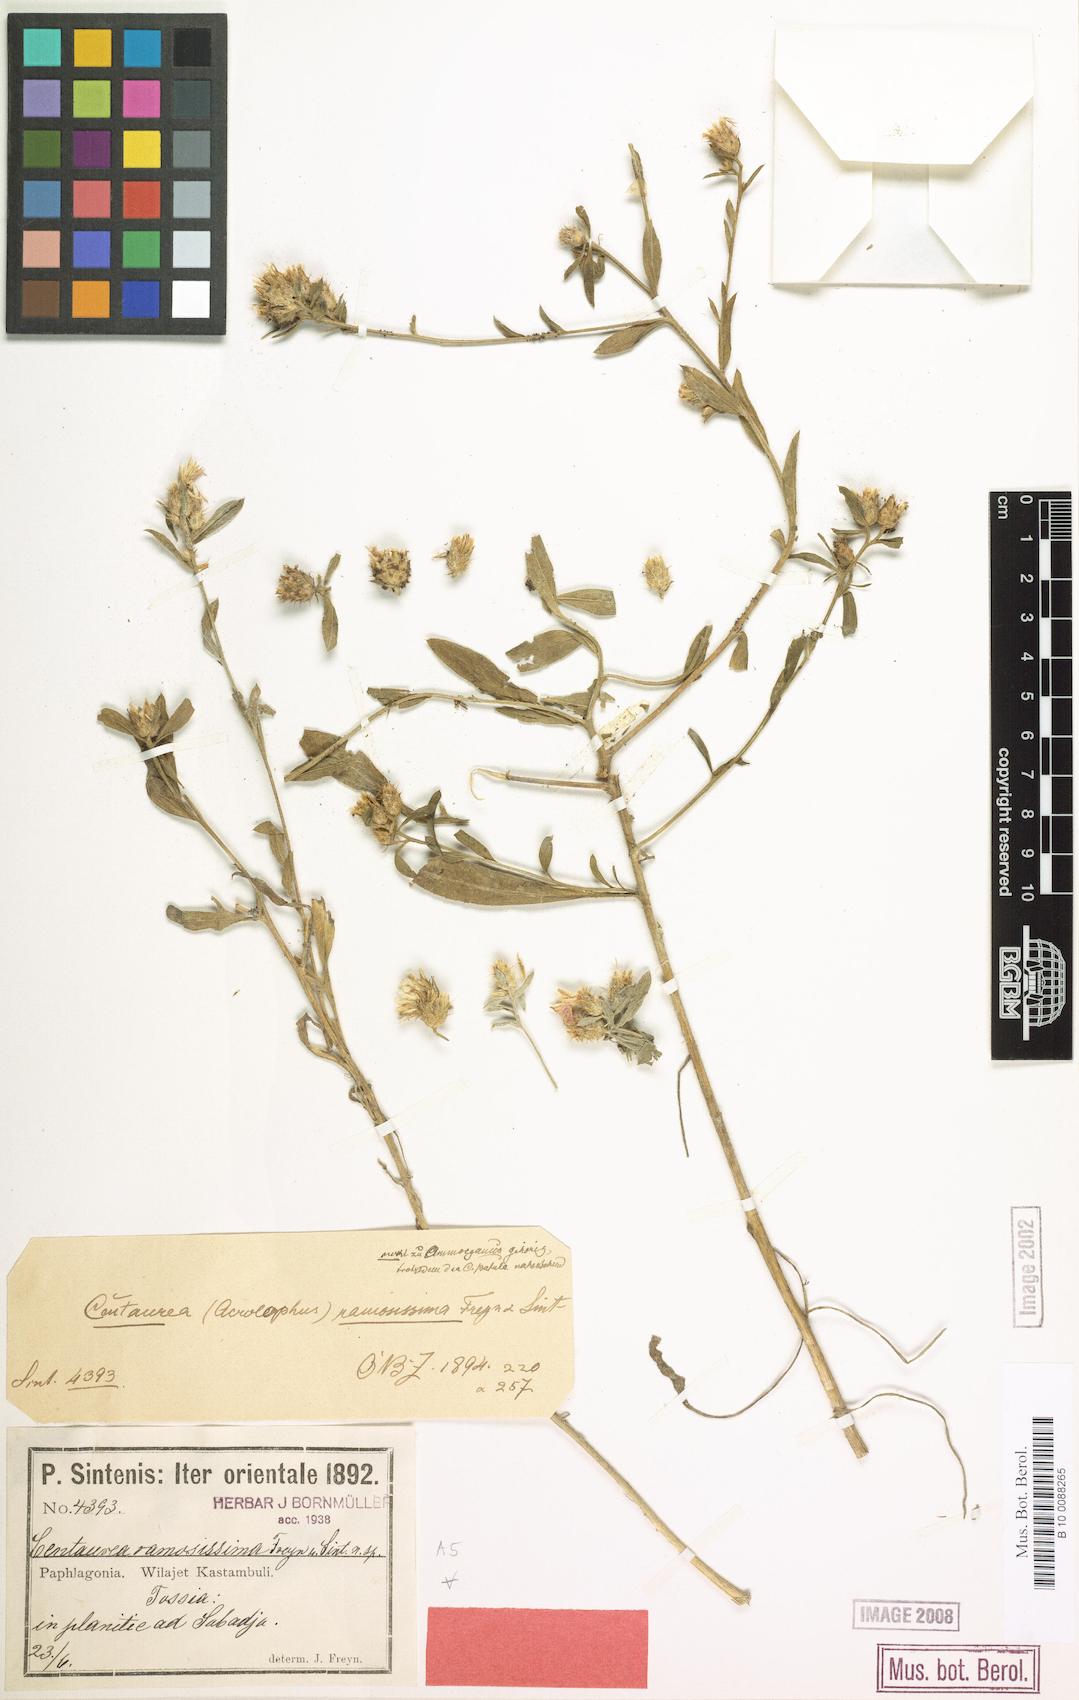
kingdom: Plantae
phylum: Tracheophyta
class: Magnoliopsida
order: Asterales
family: Asteraceae
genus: Centaurea
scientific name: Centaurea patula
